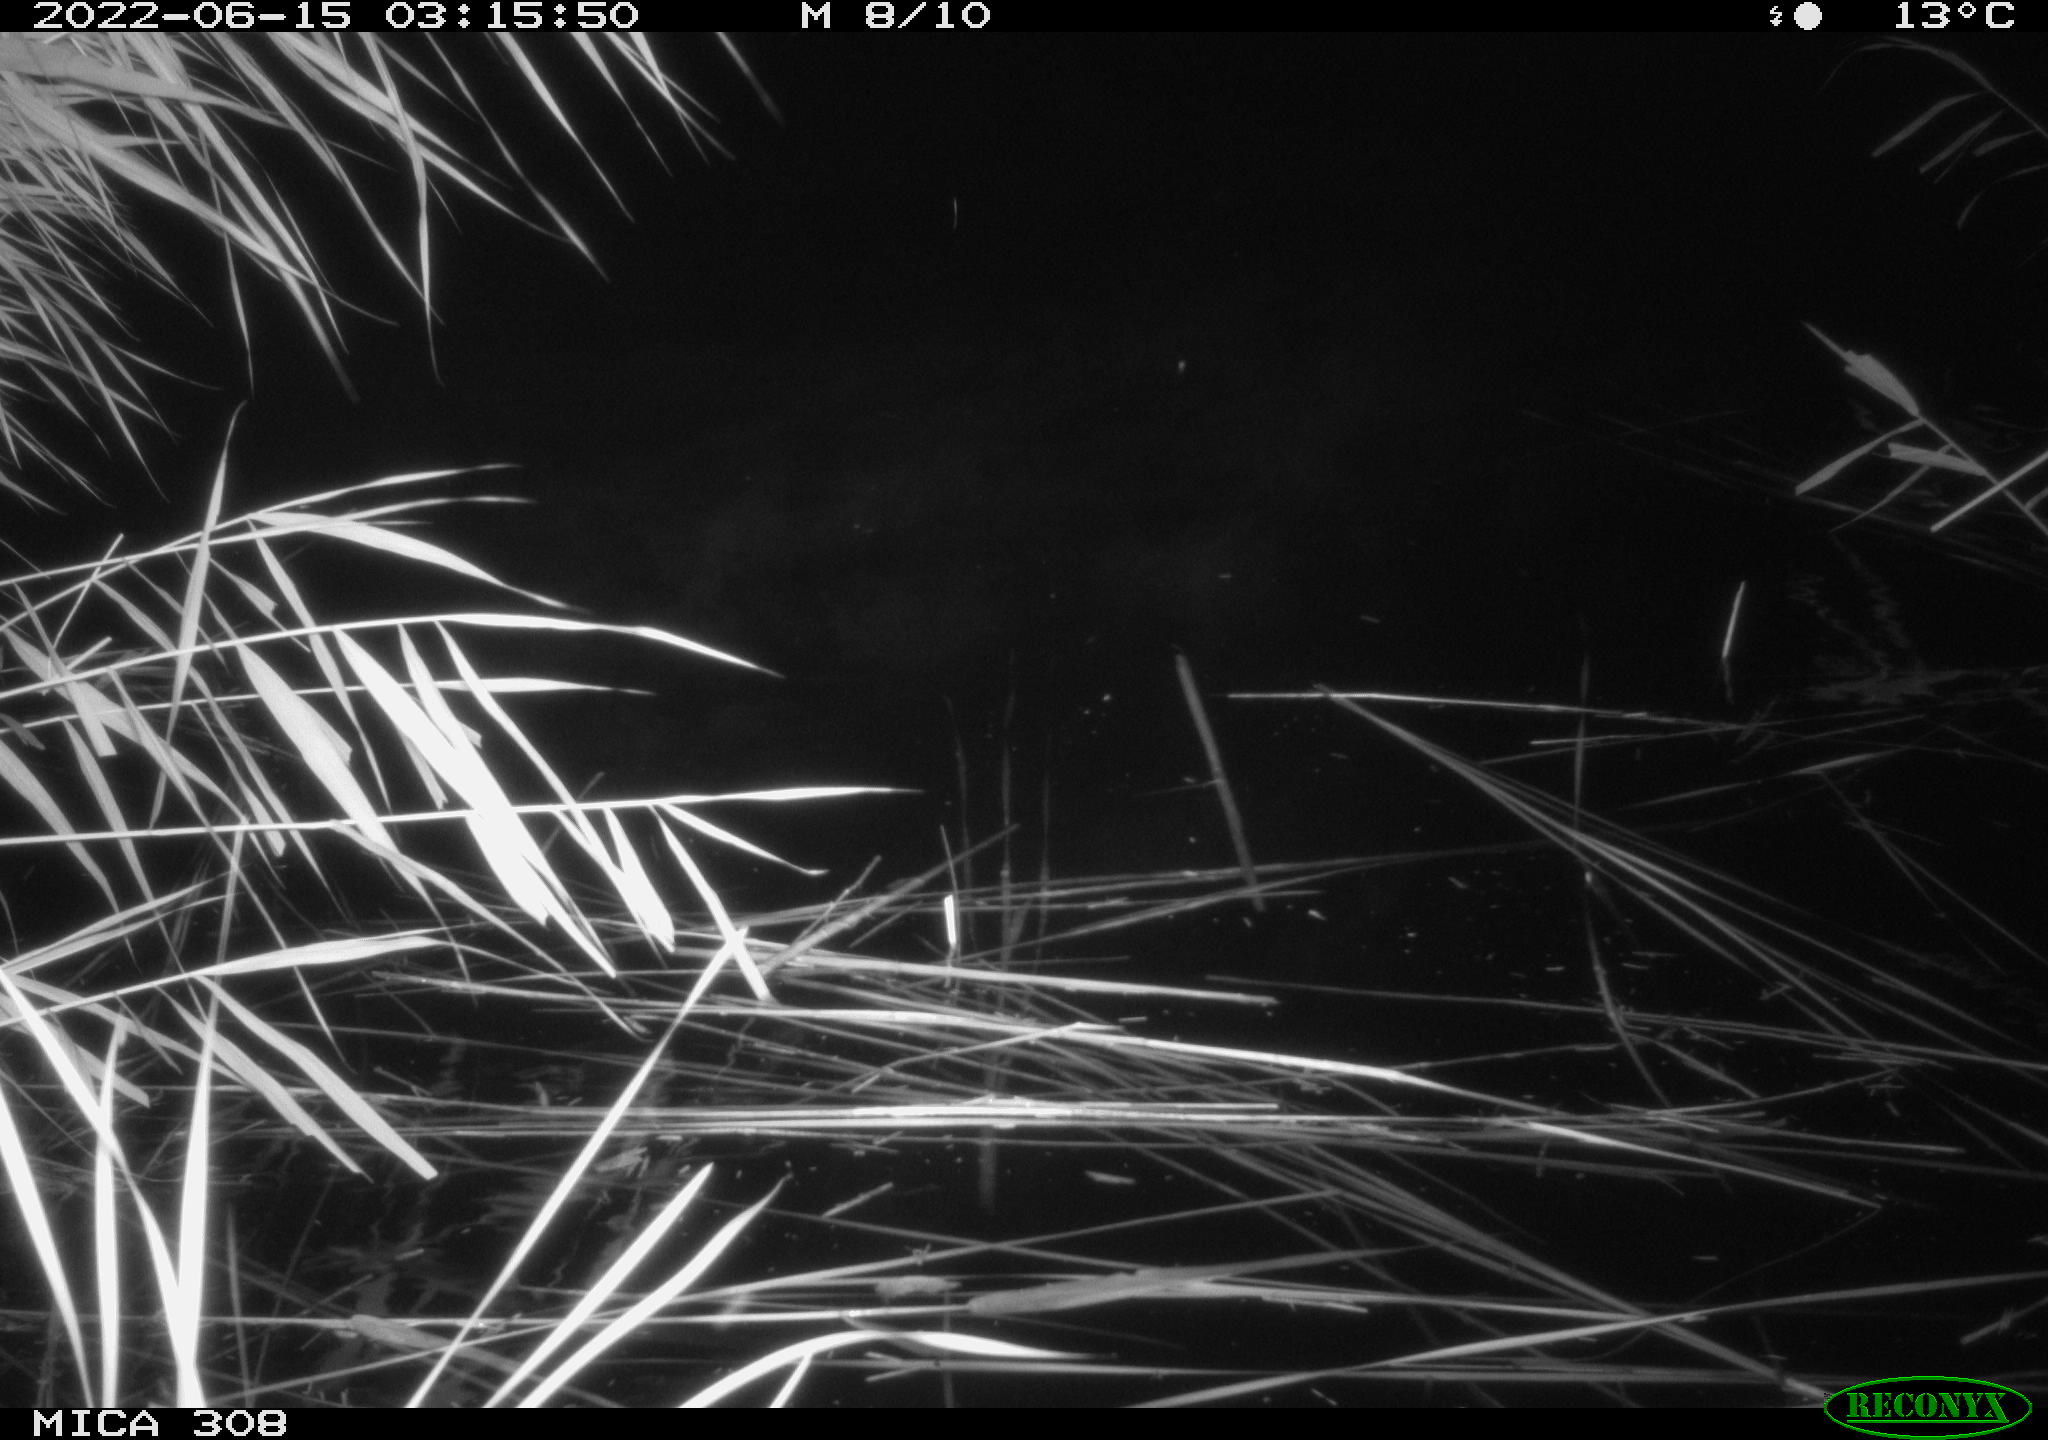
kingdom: Animalia
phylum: Chordata
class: Aves
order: Anseriformes
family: Anatidae
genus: Anas
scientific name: Anas platyrhynchos
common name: Mallard
